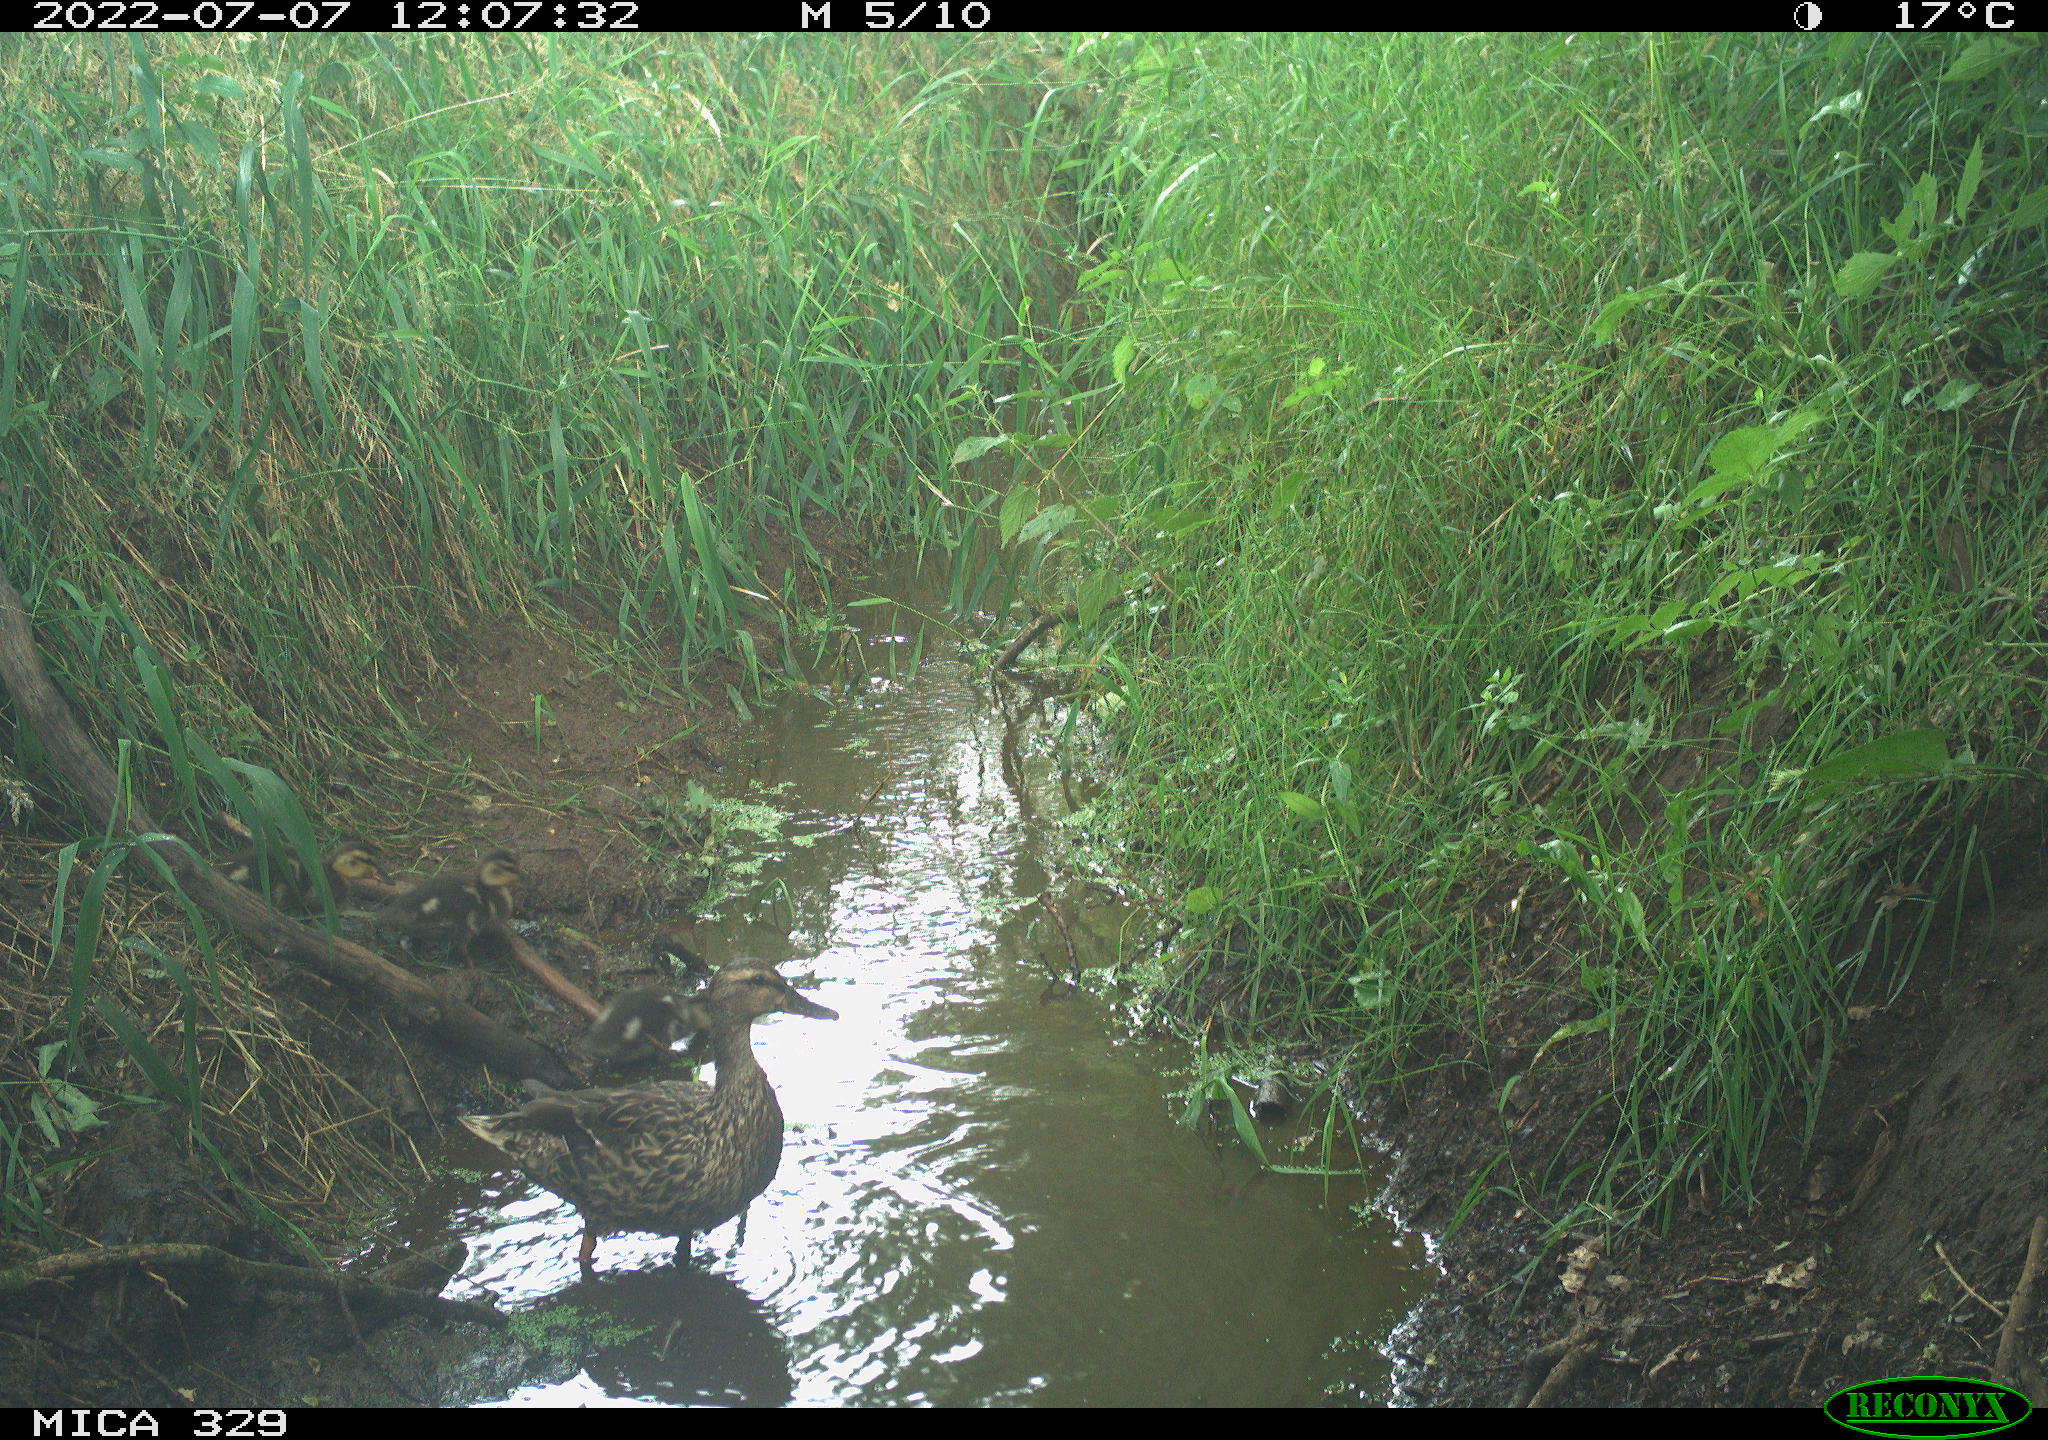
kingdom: Animalia
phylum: Chordata
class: Aves
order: Anseriformes
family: Anatidae
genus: Anas
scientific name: Anas platyrhynchos
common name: Mallard
